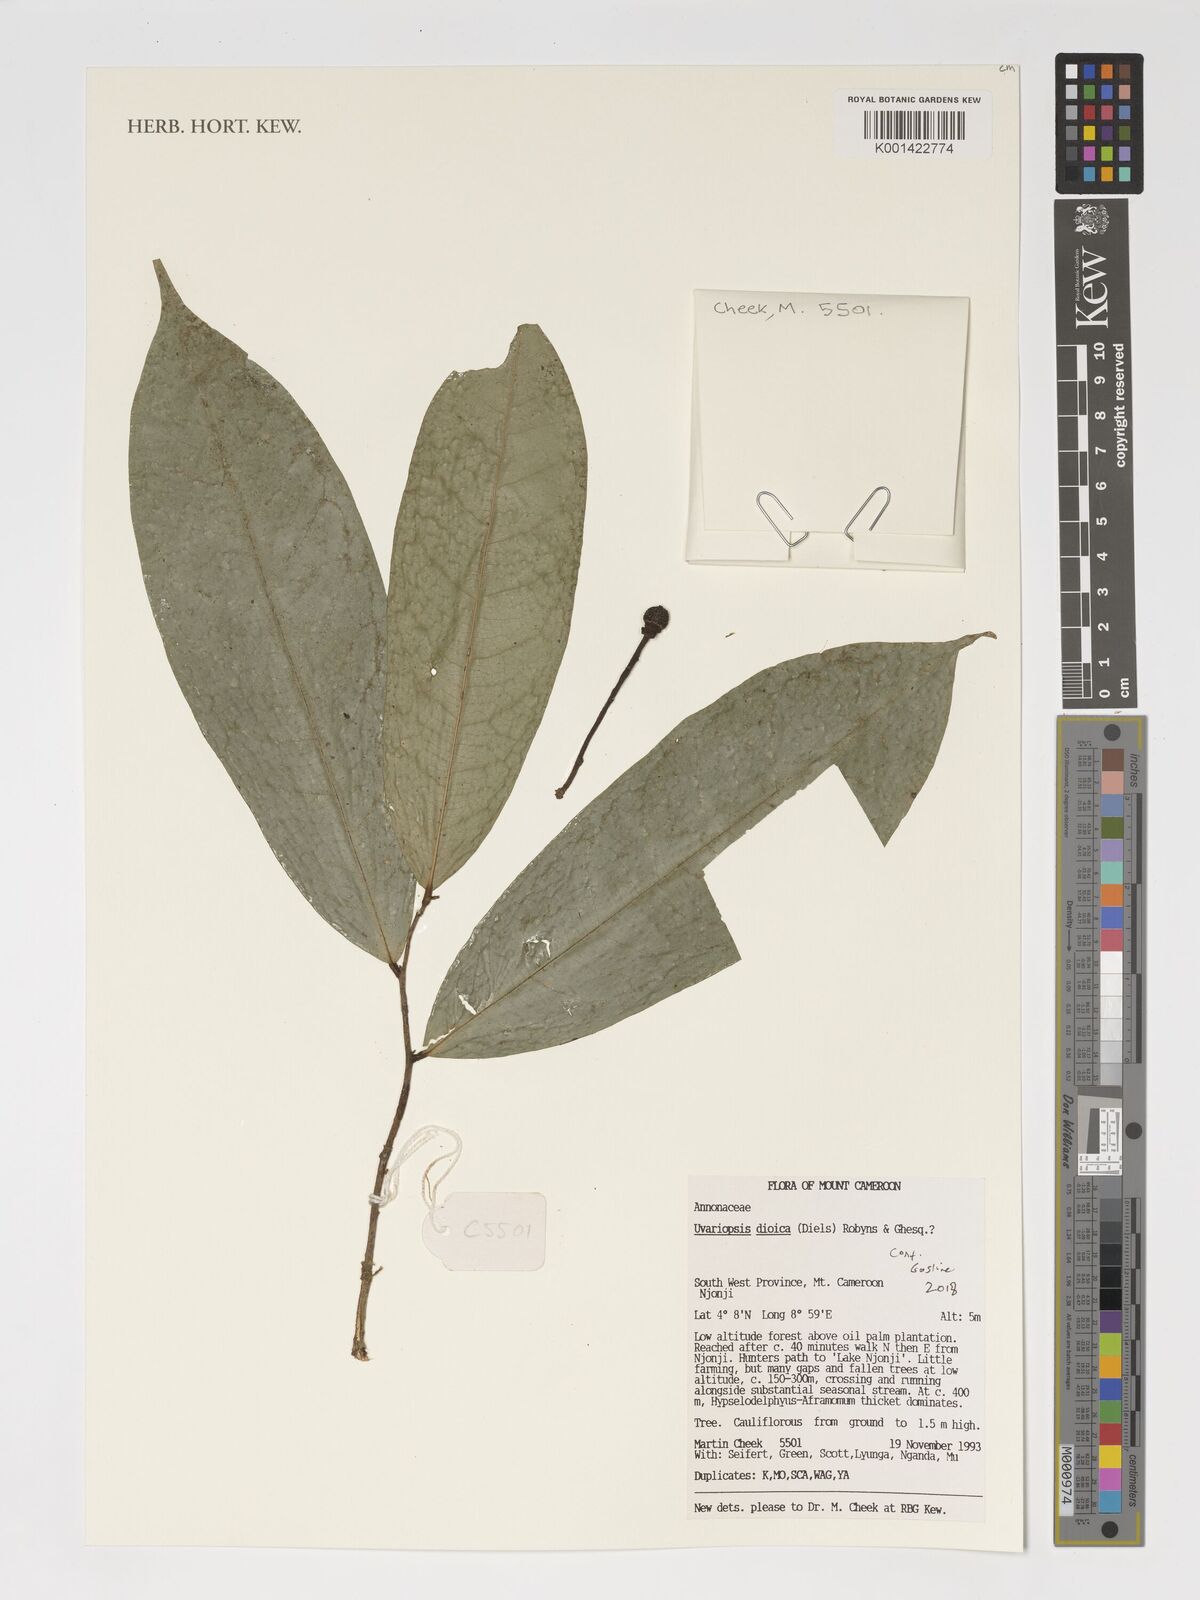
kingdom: Plantae
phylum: Tracheophyta
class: Magnoliopsida
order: Magnoliales
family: Annonaceae
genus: Uvariopsis
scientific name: Uvariopsis dioica
